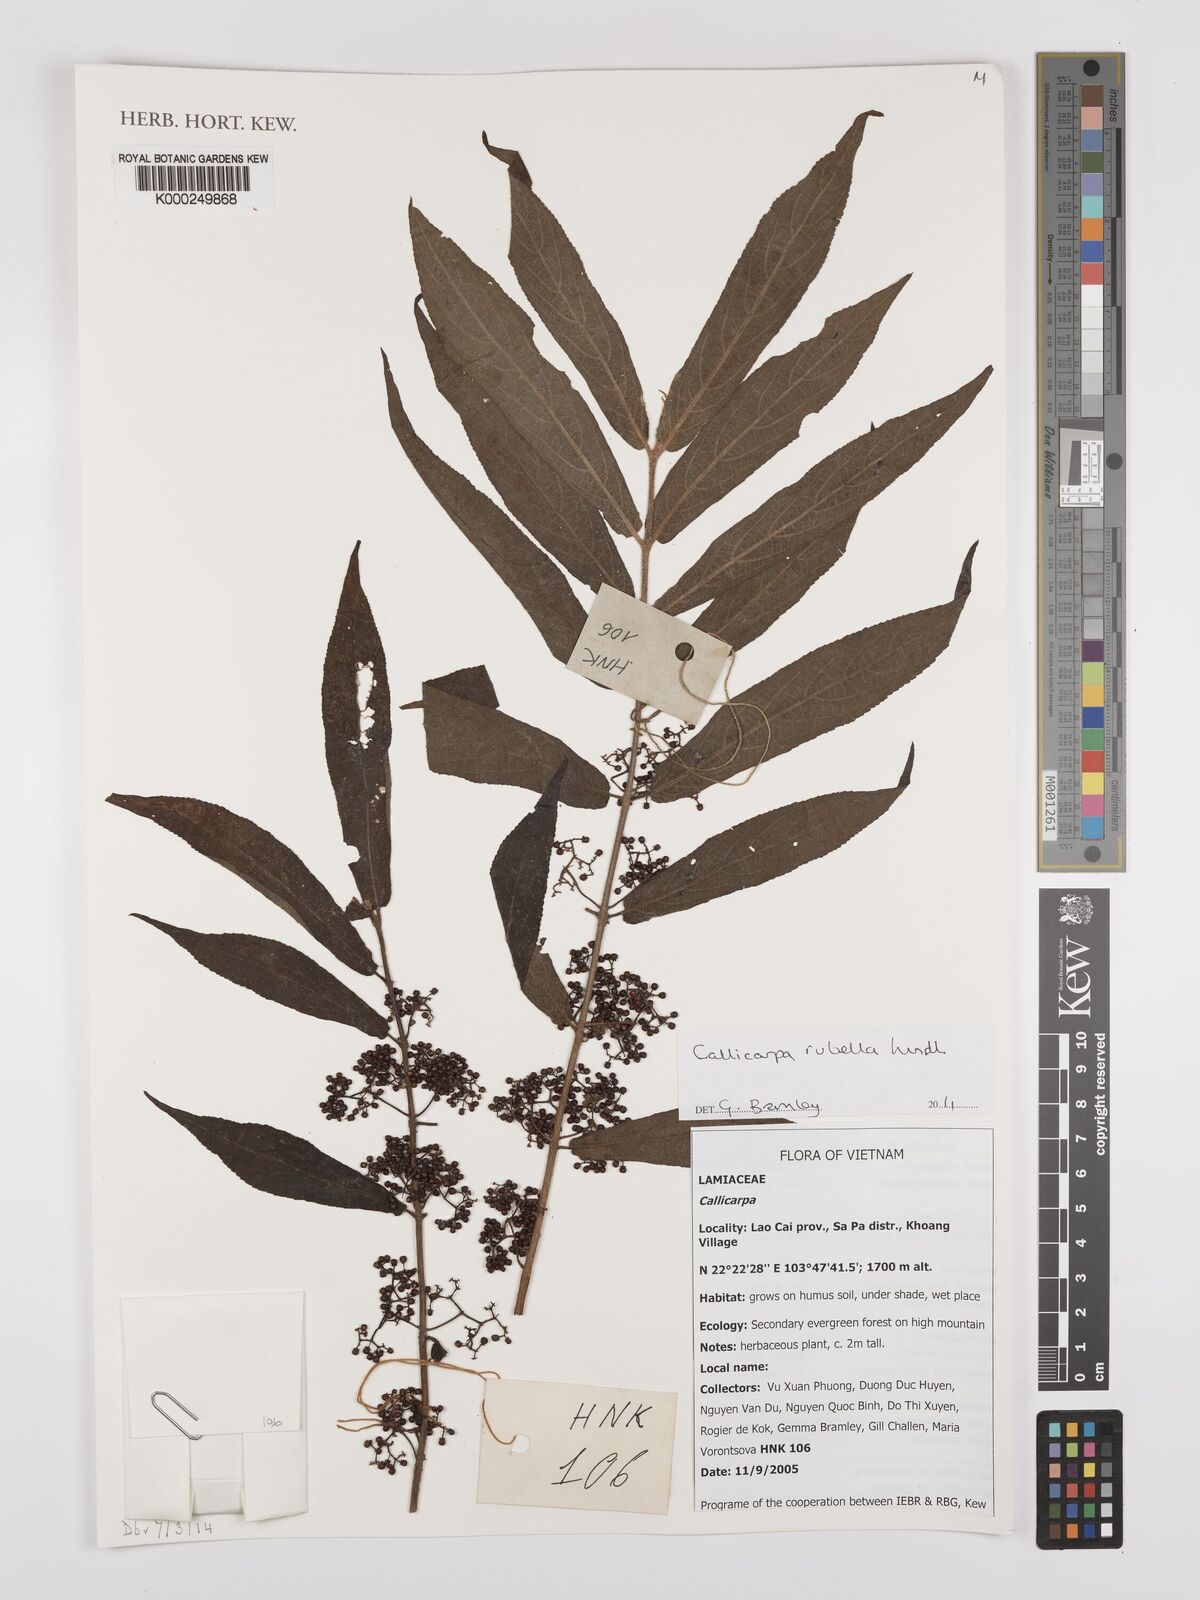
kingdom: Plantae
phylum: Tracheophyta
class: Magnoliopsida
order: Lamiales
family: Lamiaceae
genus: Callicarpa
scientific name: Callicarpa rubella
